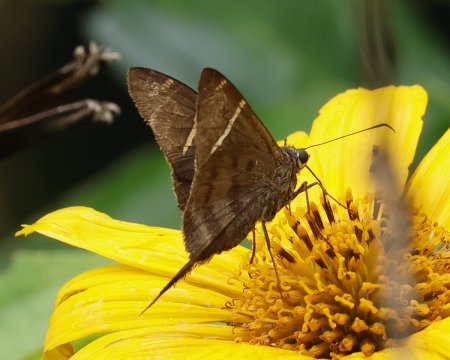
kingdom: Animalia
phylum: Arthropoda
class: Insecta
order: Lepidoptera
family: Hesperiidae
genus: Urbanus
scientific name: Urbanus tanna
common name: Tanna Longtail
